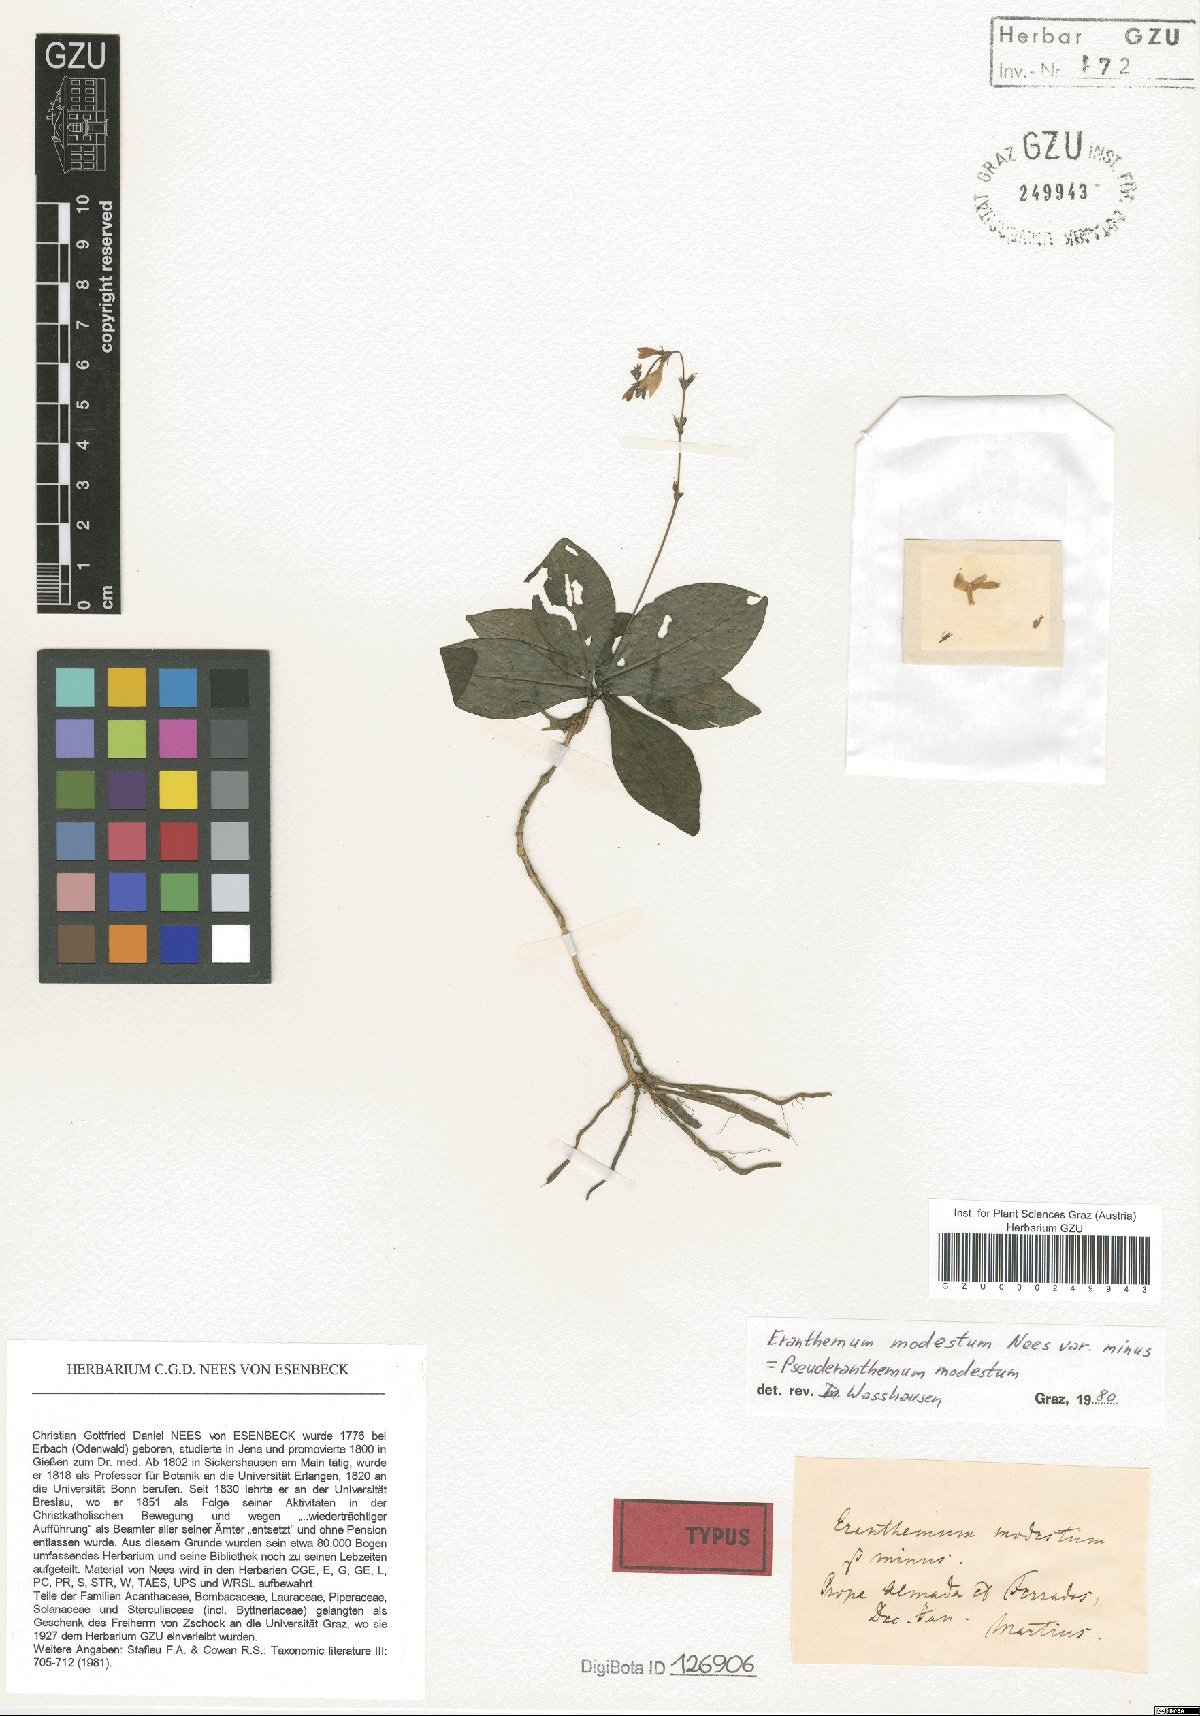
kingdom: Plantae
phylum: Tracheophyta
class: Magnoliopsida
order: Lamiales
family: Acanthaceae
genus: Pseuderanthemum
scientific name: Pseuderanthemum modestum
